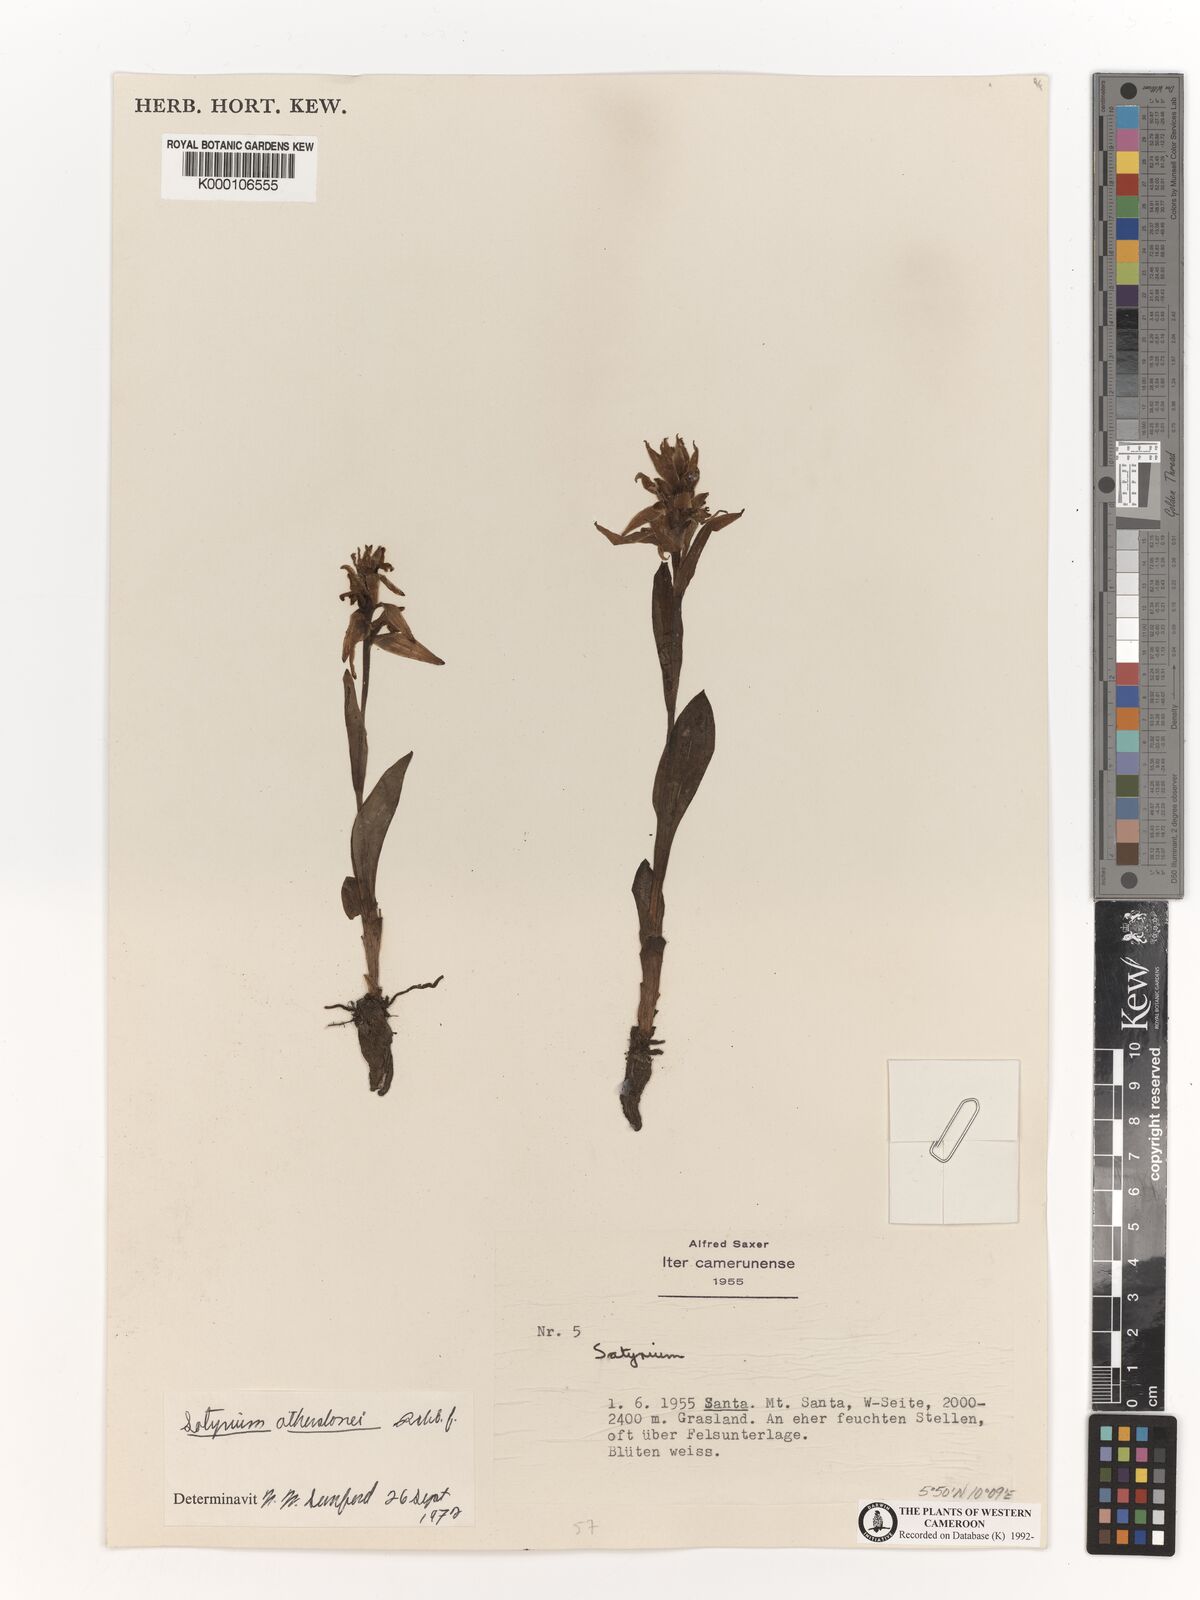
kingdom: Plantae
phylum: Tracheophyta
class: Liliopsida
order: Asparagales
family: Orchidaceae
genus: Satyrium
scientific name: Satyrium trinerve
